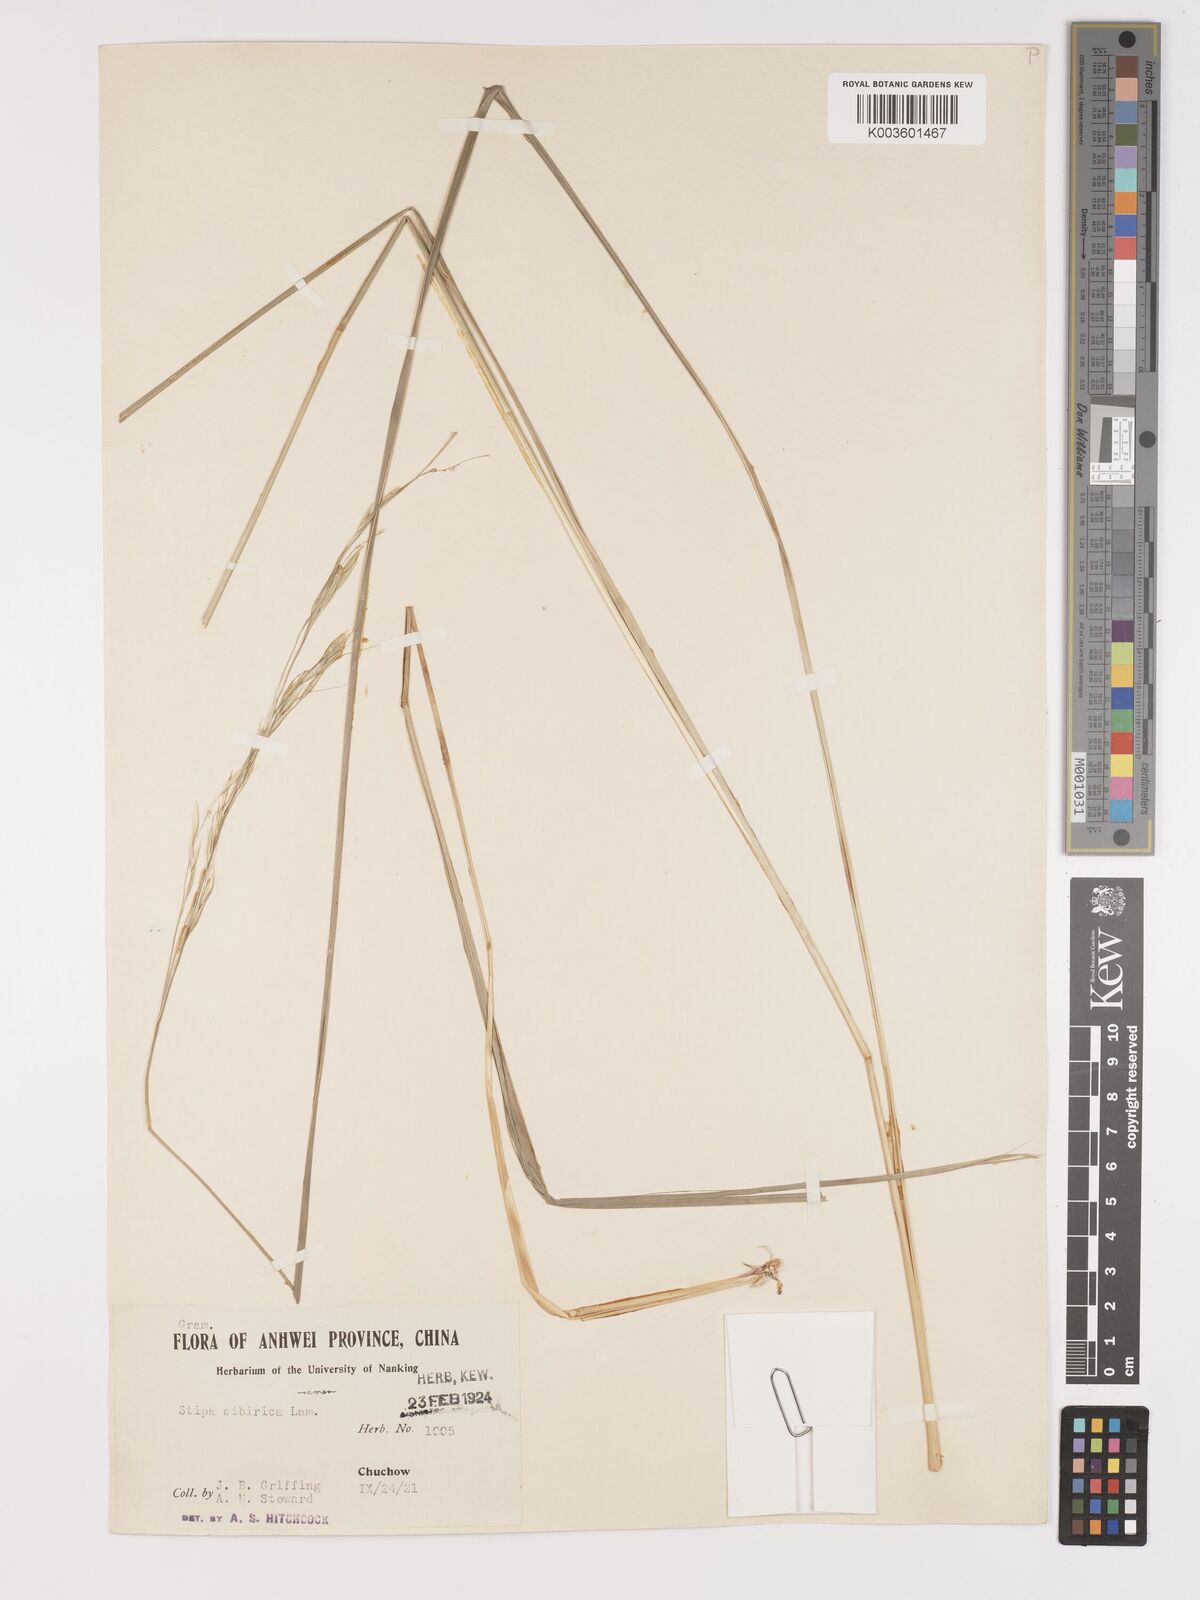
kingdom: Plantae
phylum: Tracheophyta
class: Liliopsida
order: Poales
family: Poaceae
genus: Achnatherum
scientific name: Achnatherum pekinense
